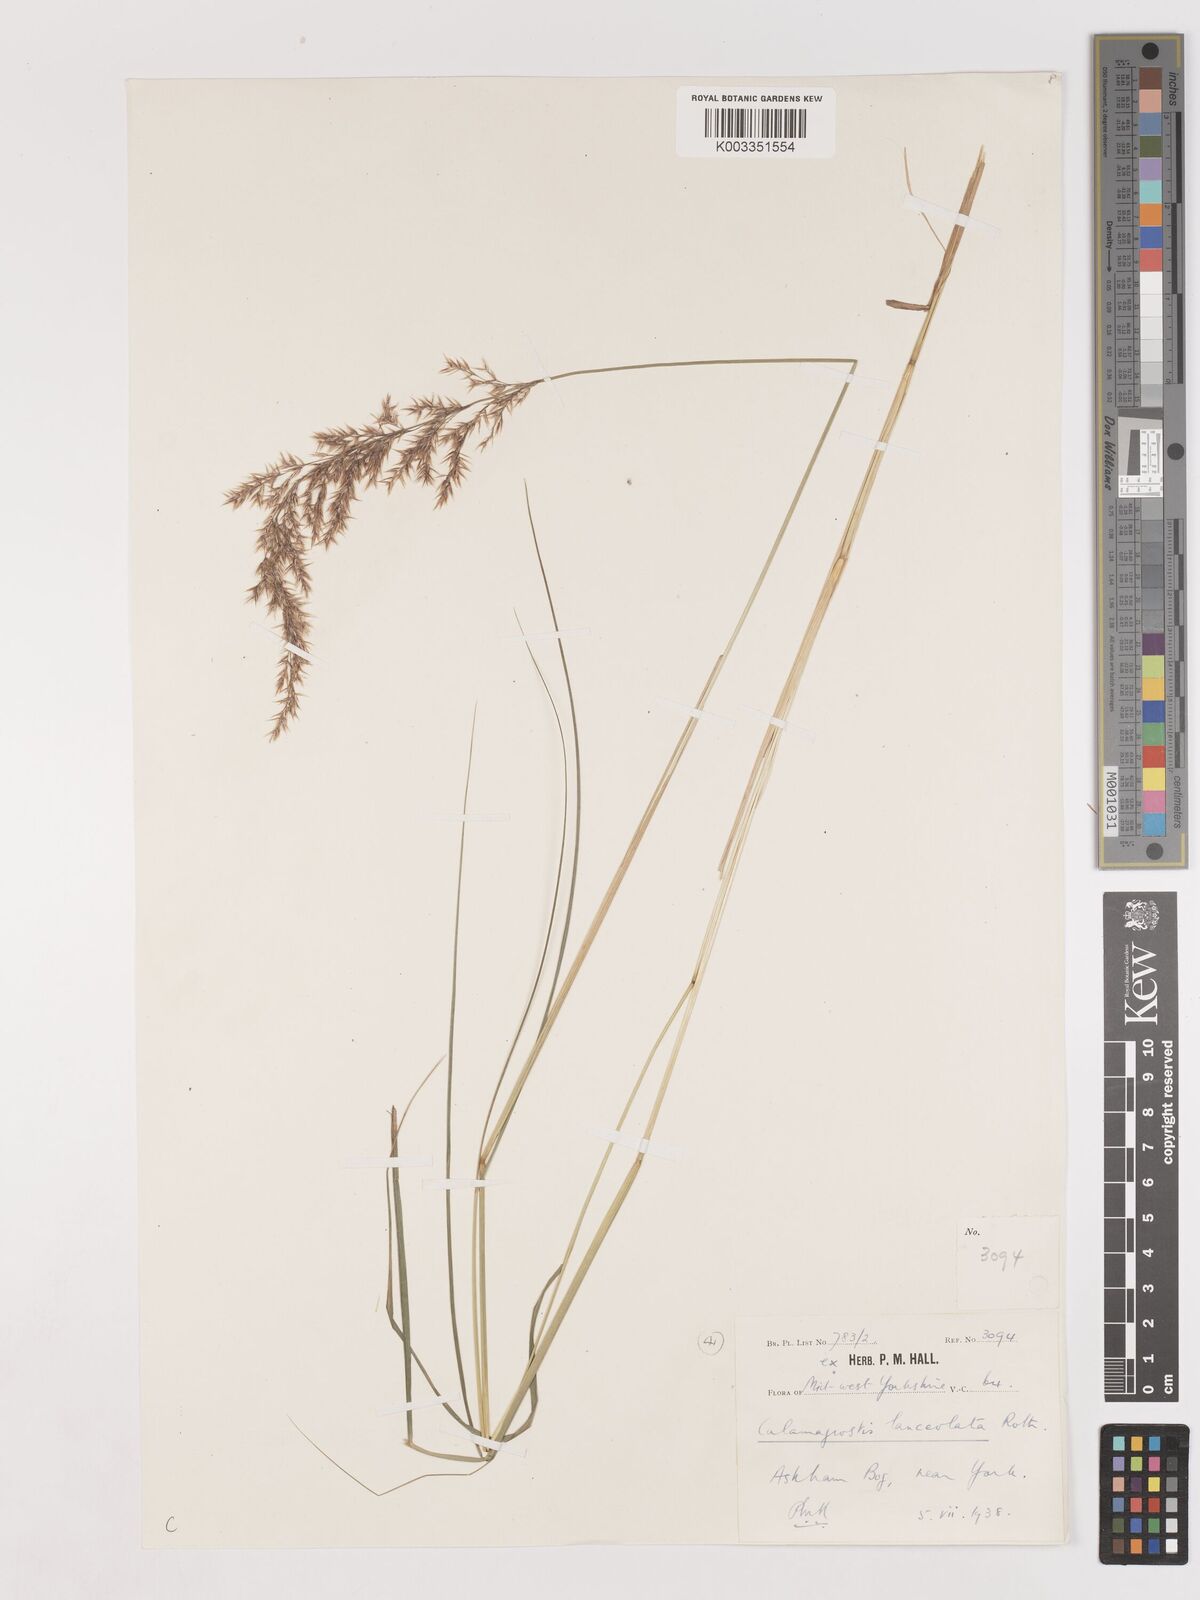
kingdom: Plantae
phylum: Tracheophyta
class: Liliopsida
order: Poales
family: Poaceae
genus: Calamagrostis
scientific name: Calamagrostis canescens
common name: Purple small-reed
